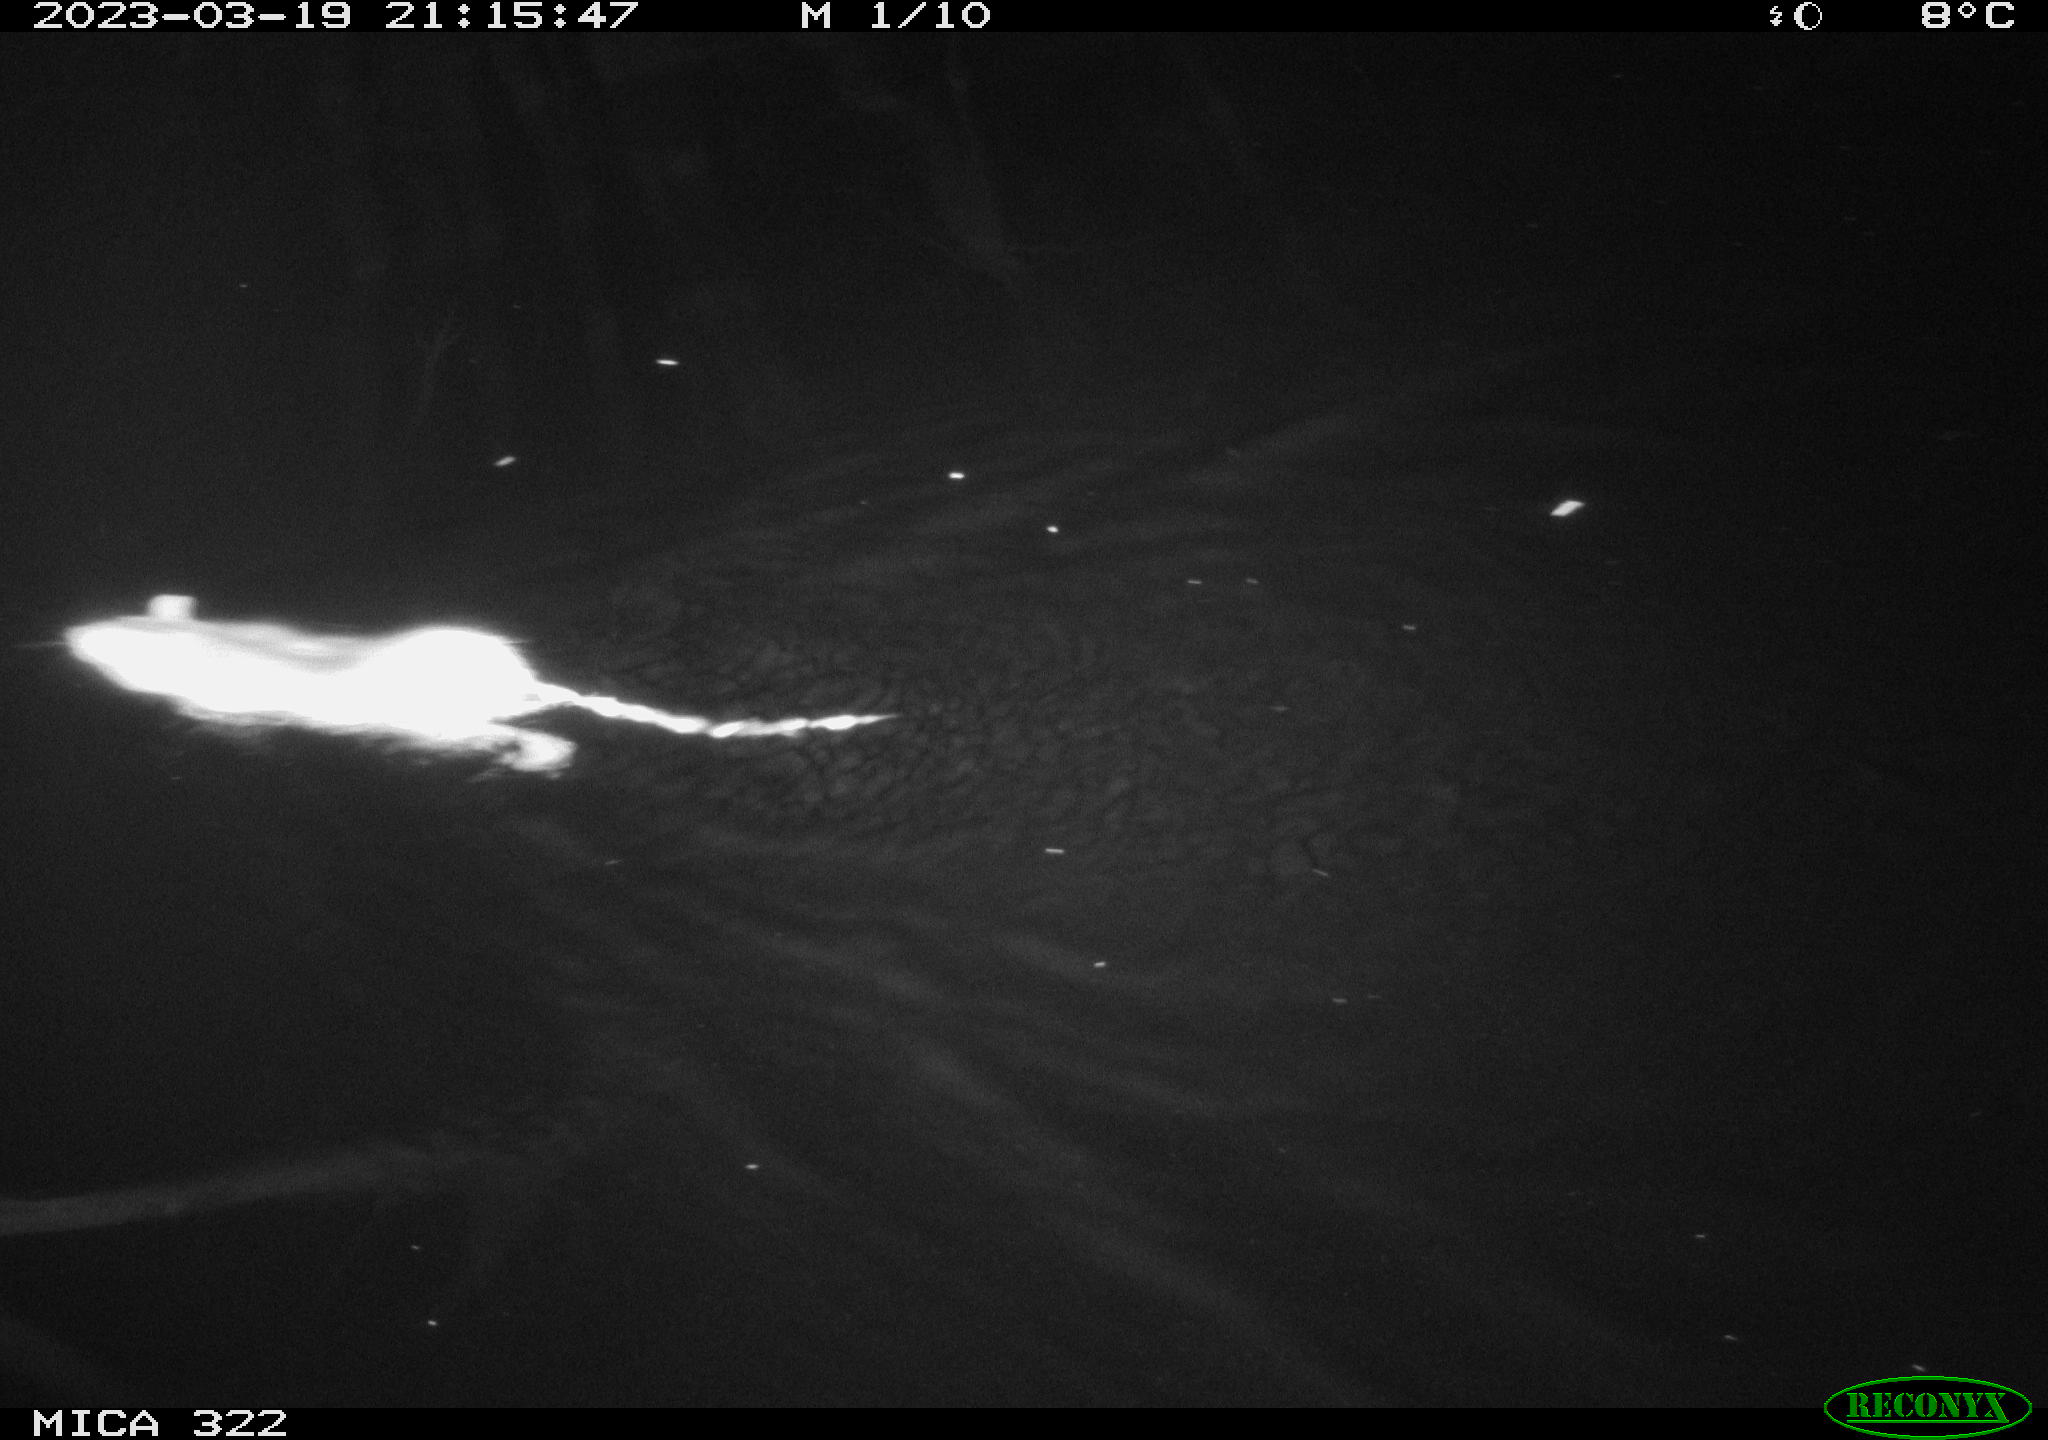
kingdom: Animalia
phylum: Chordata
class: Mammalia
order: Rodentia
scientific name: Rodentia
